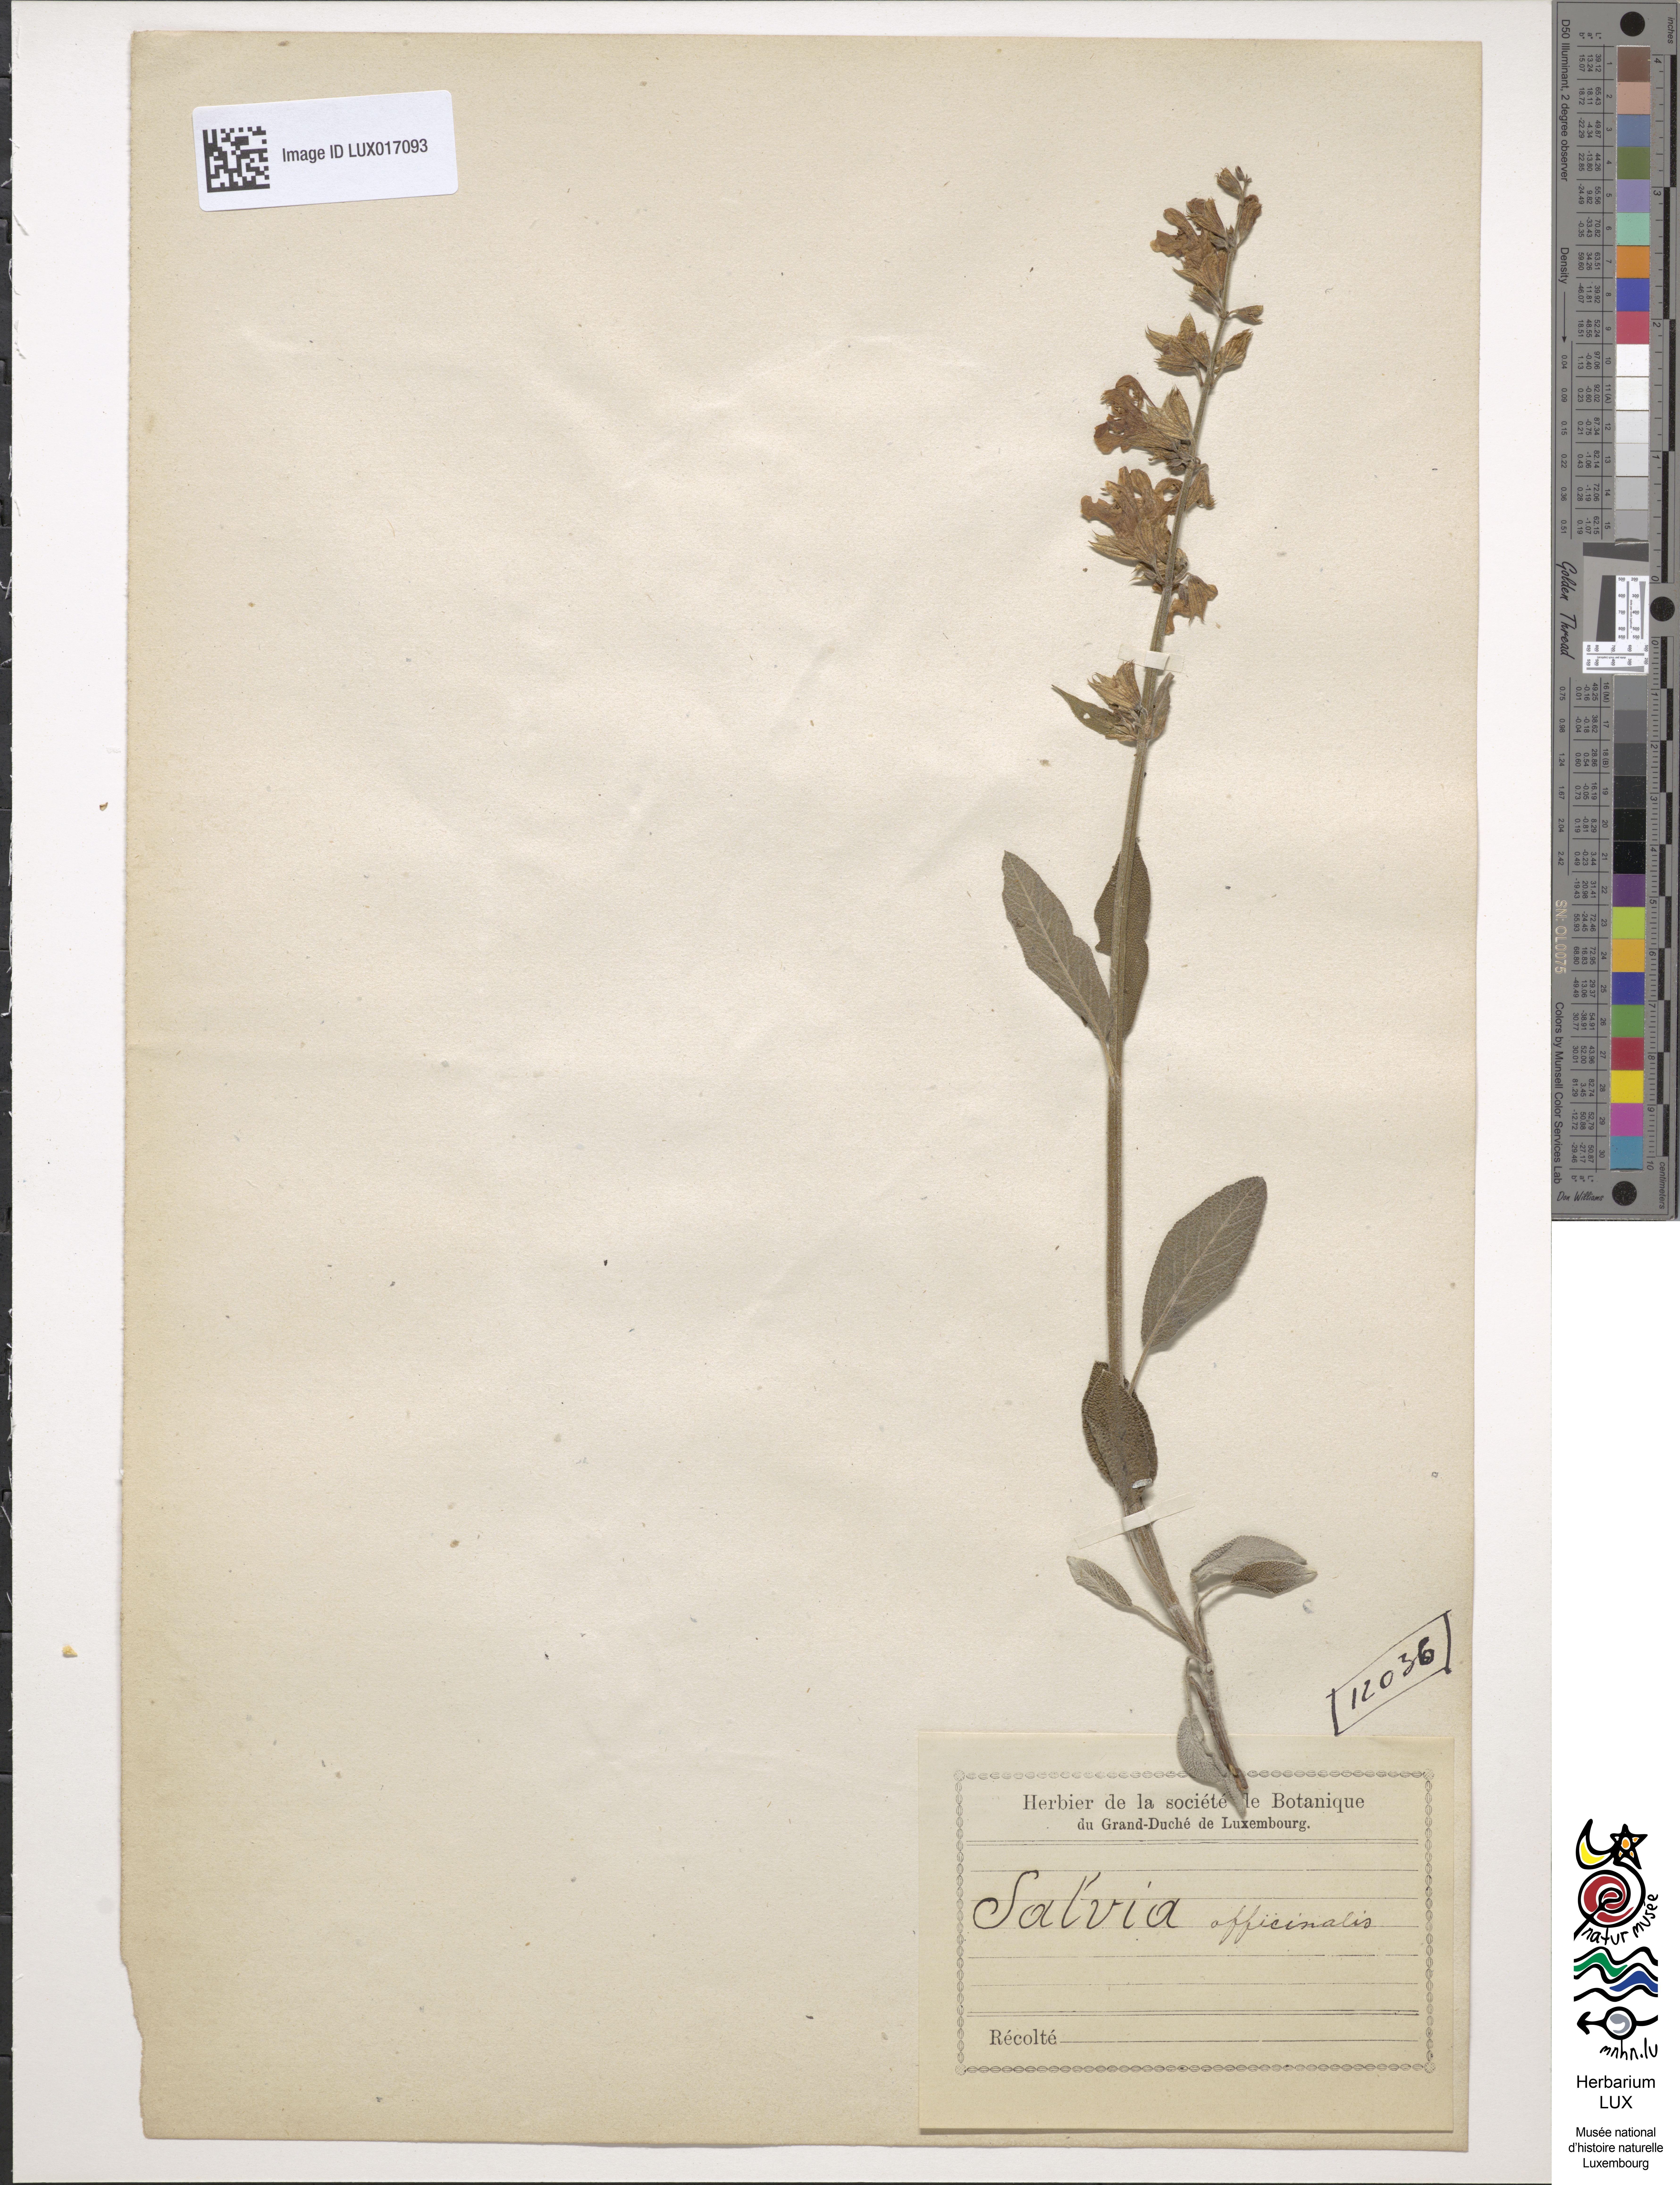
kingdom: Plantae
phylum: Tracheophyta
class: Magnoliopsida
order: Lamiales
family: Lamiaceae
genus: Salvia
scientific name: Salvia officinalis
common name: Sage
